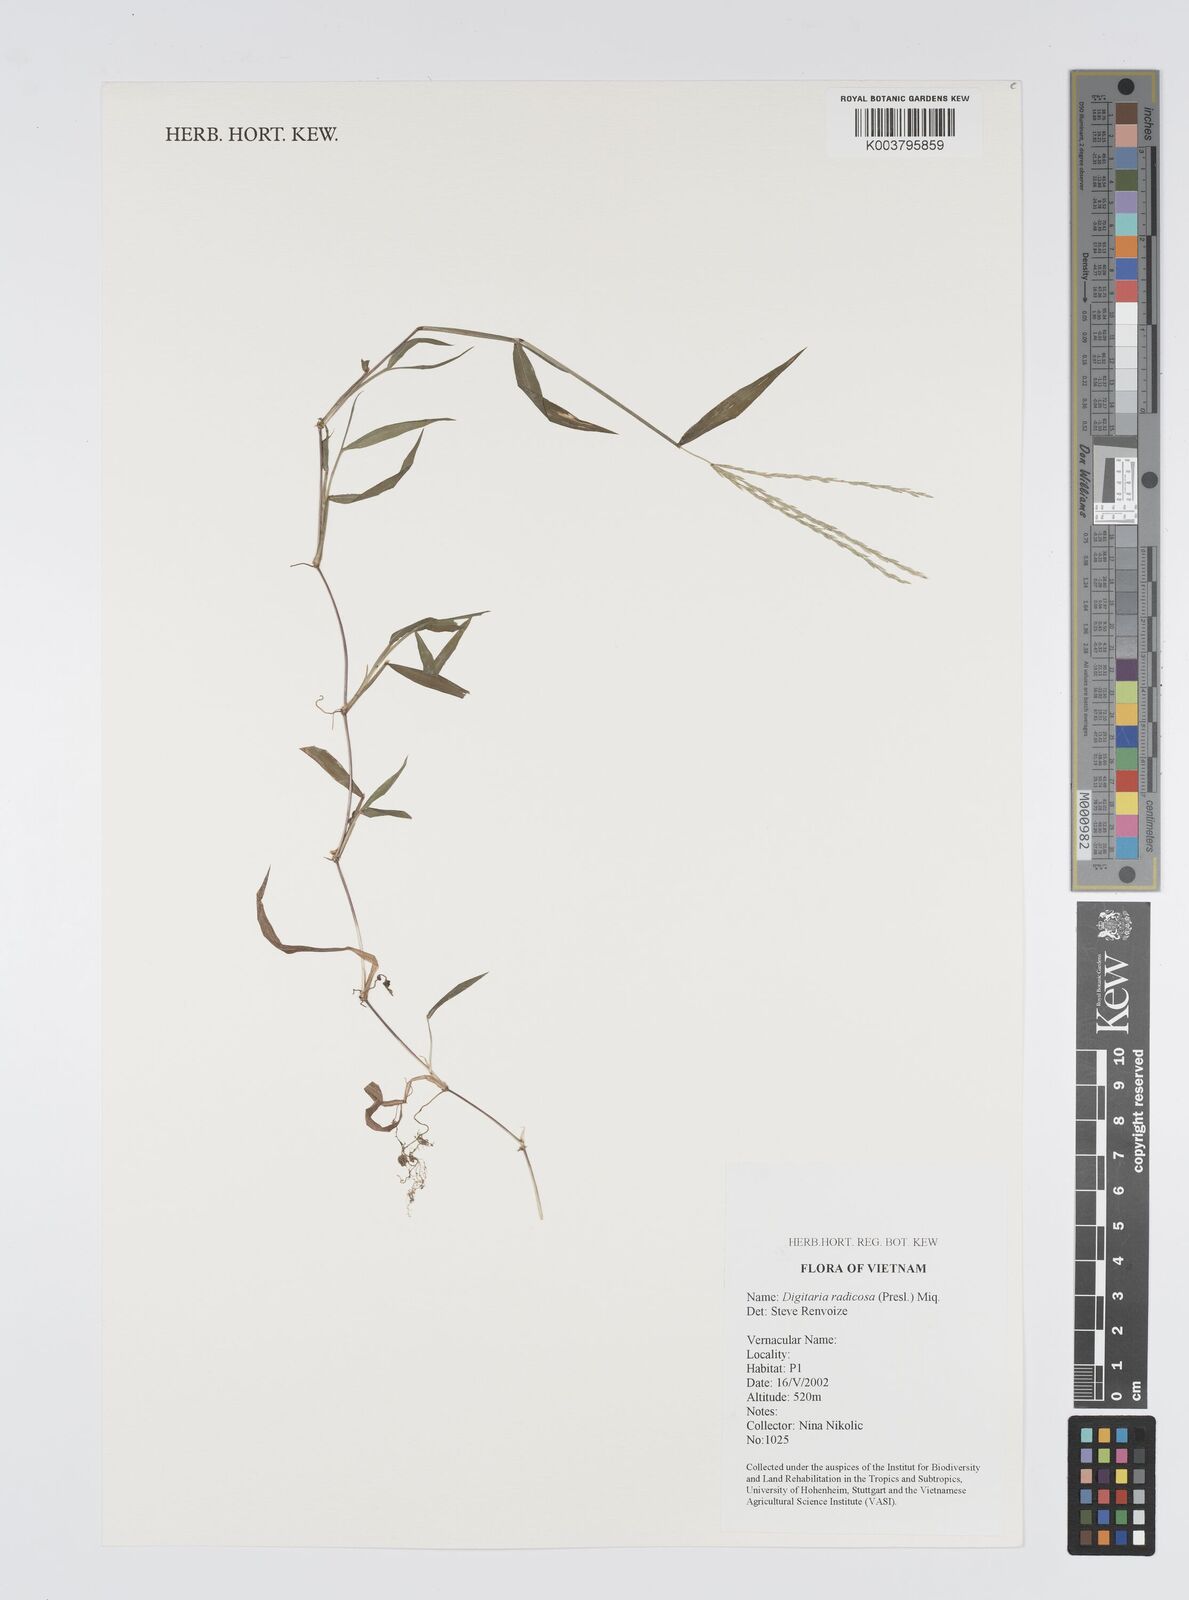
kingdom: Plantae
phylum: Tracheophyta
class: Liliopsida
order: Poales
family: Poaceae
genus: Digitaria
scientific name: Digitaria radicosa
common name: Trailing crabgrass
